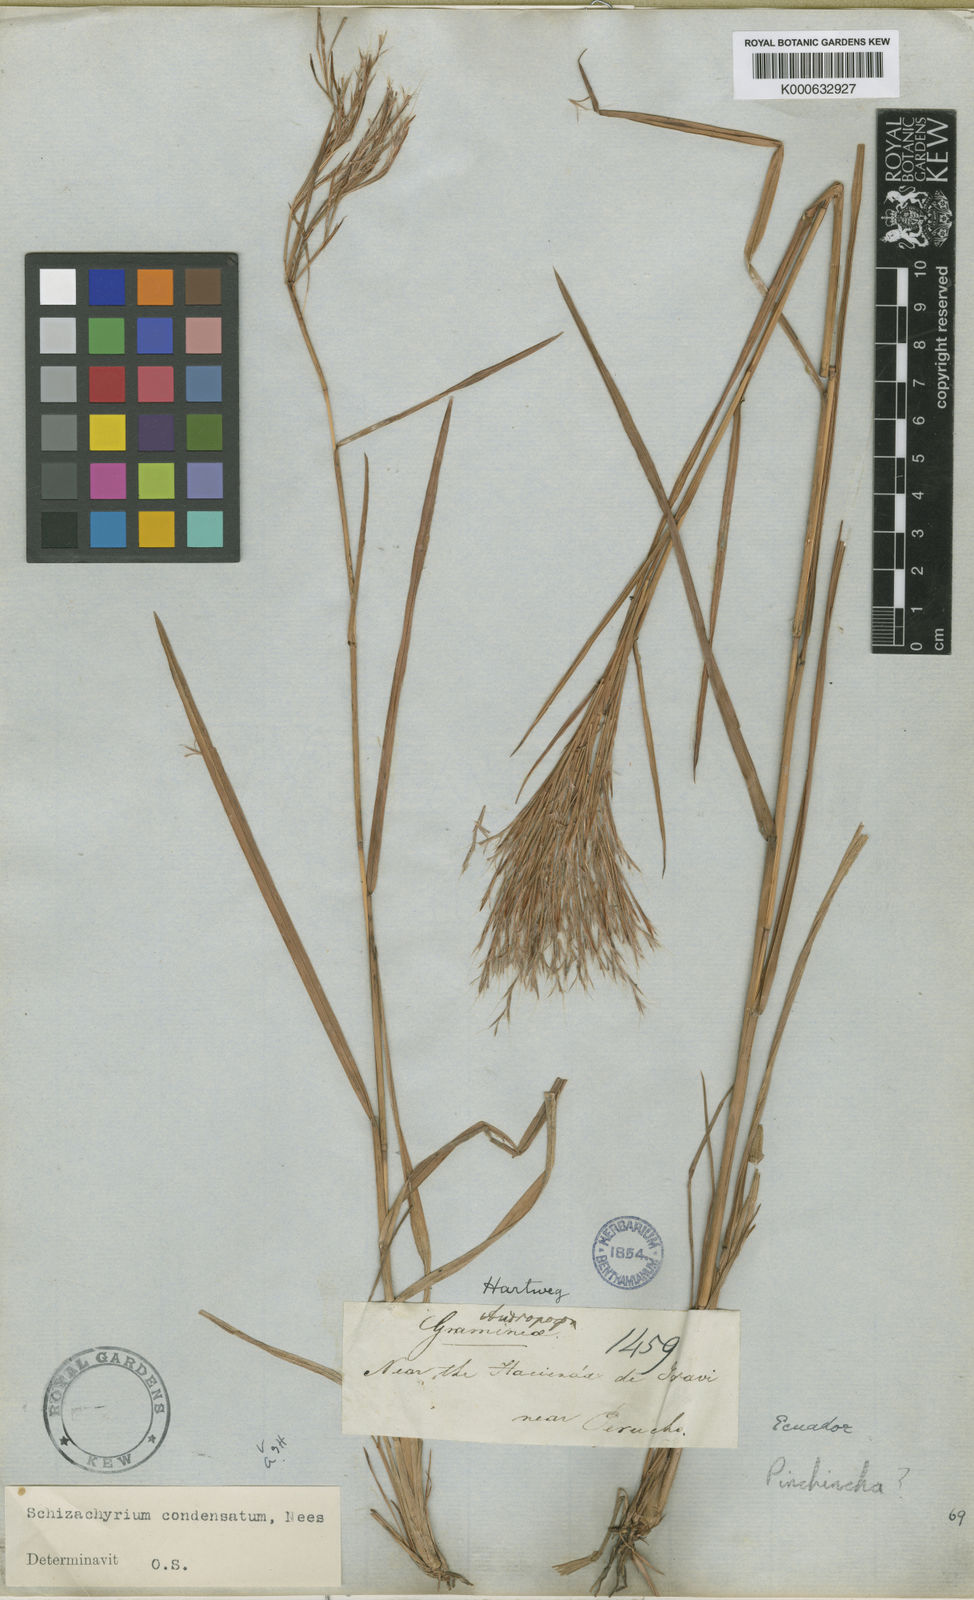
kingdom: Plantae
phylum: Tracheophyta
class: Liliopsida
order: Poales
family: Poaceae
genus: Schizachyrium
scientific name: Schizachyrium condensatum
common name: Bush beardgrass
